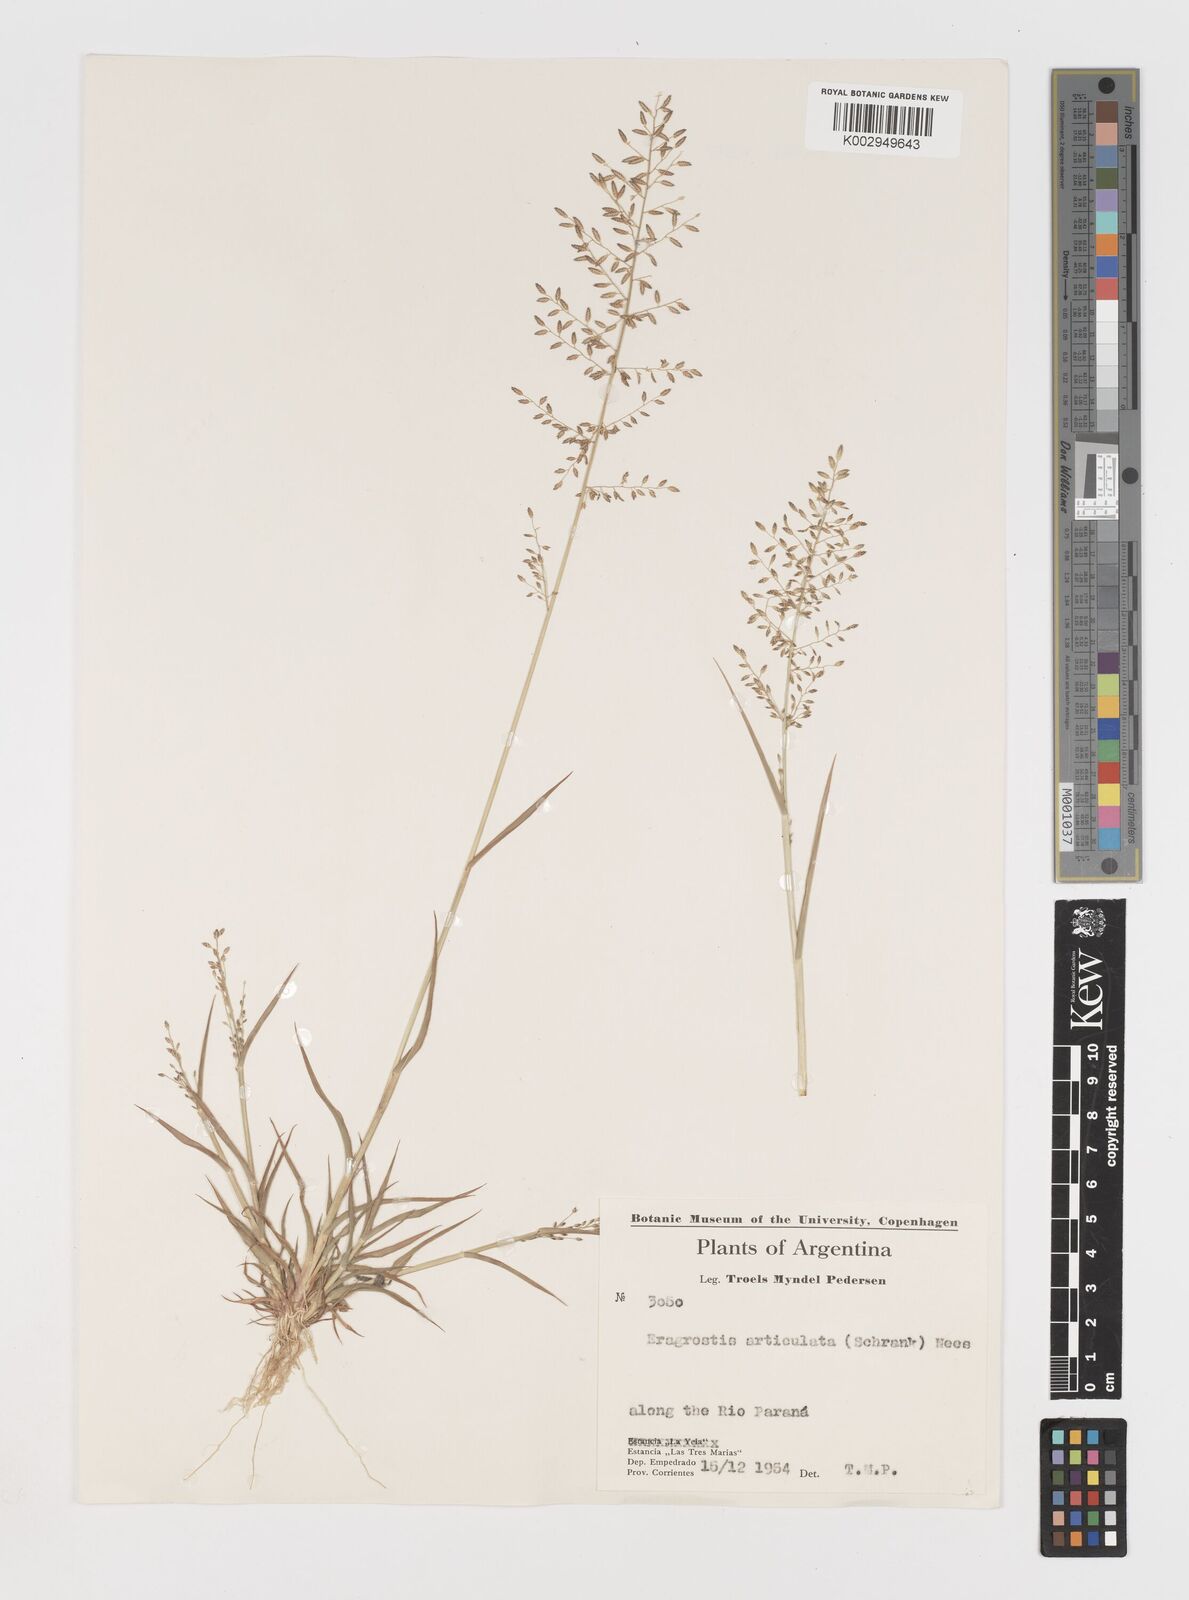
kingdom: Plantae
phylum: Tracheophyta
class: Liliopsida
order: Poales
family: Poaceae
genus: Eragrostis
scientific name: Eragrostis articulata
